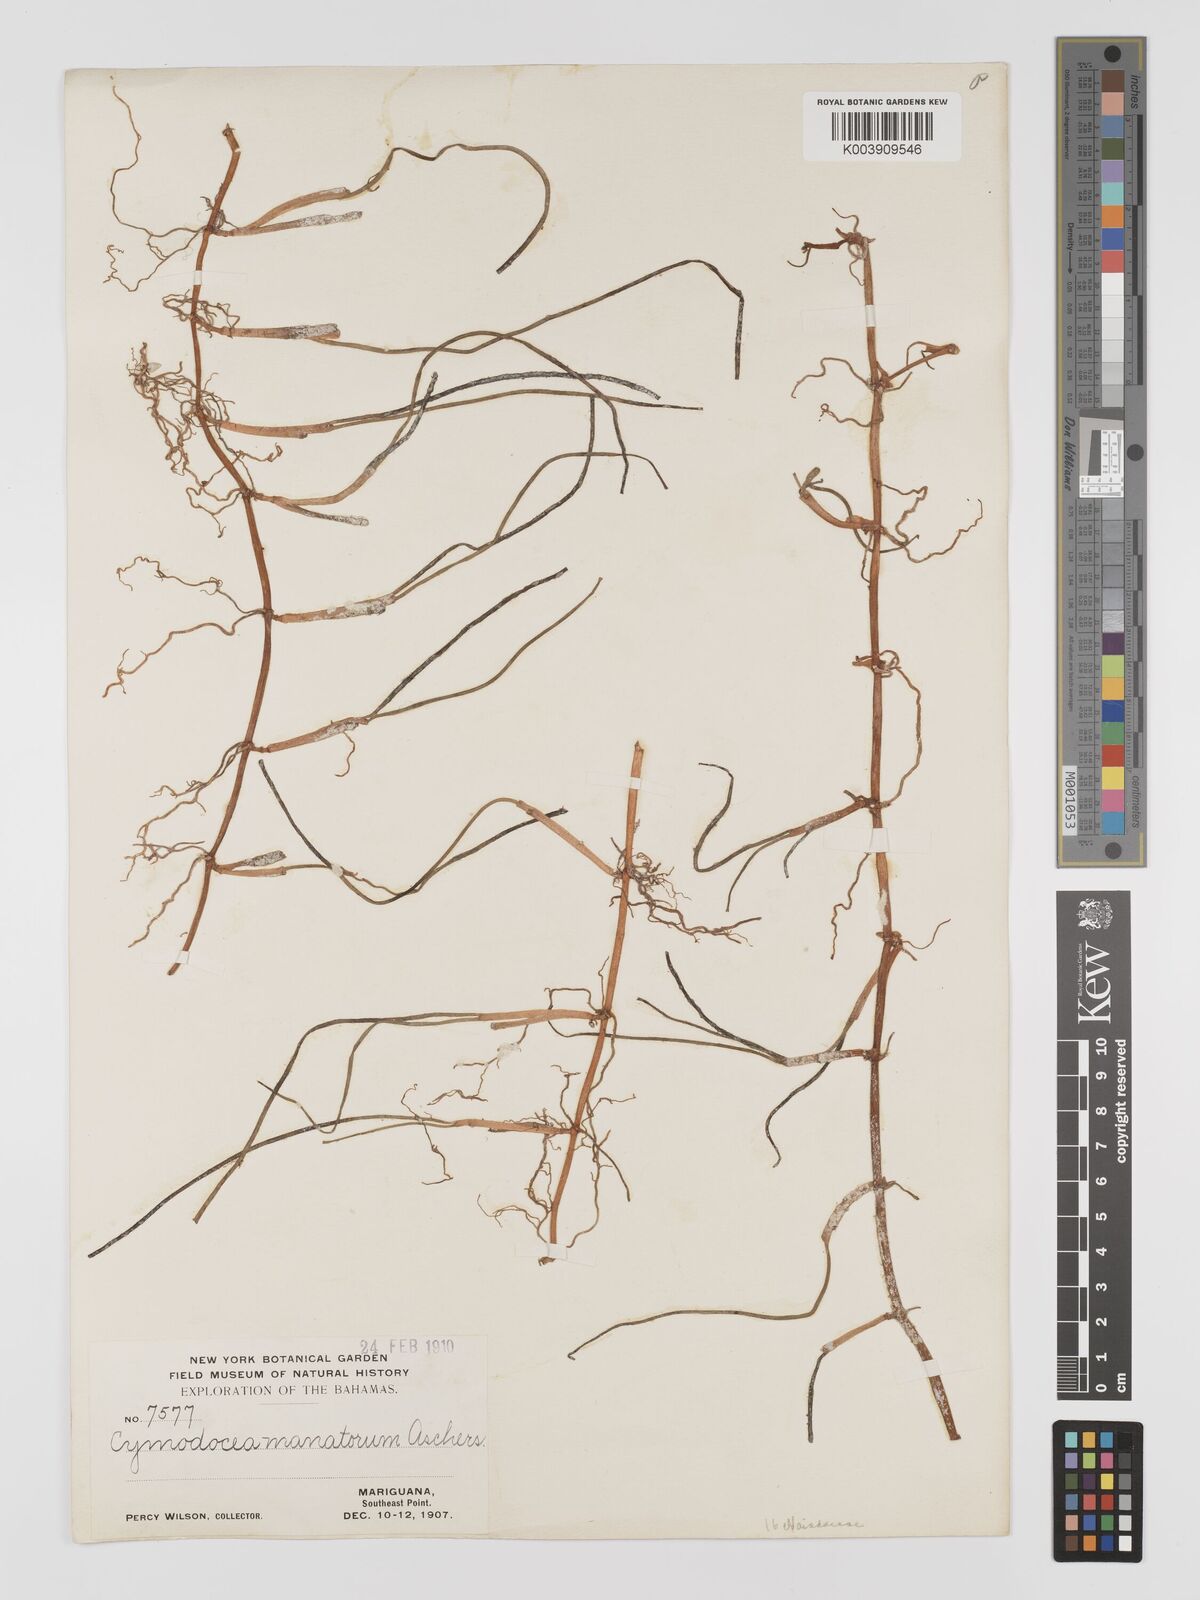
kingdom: Plantae
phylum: Tracheophyta
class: Liliopsida
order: Alismatales
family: Cymodoceaceae
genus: Syringodium
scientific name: Syringodium
